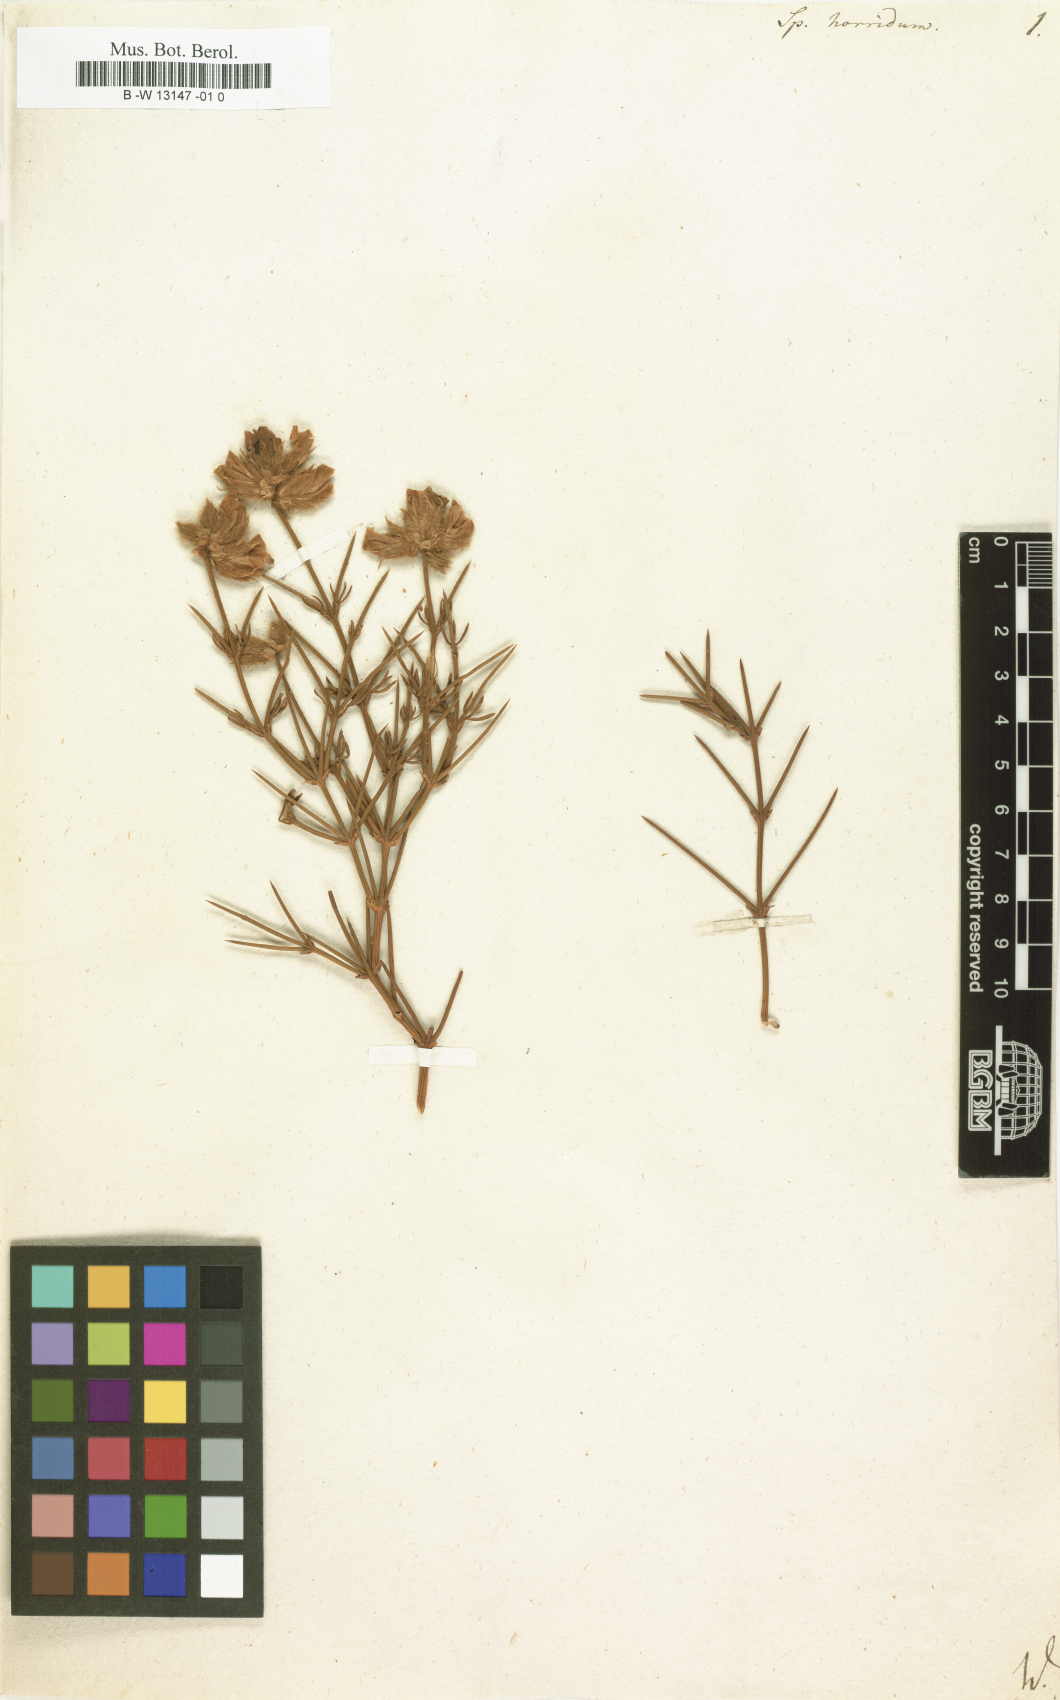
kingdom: Plantae
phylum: Tracheophyta
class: Magnoliopsida
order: Fabales
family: Fabaceae
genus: Echinospartum
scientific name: Echinospartum horridum
